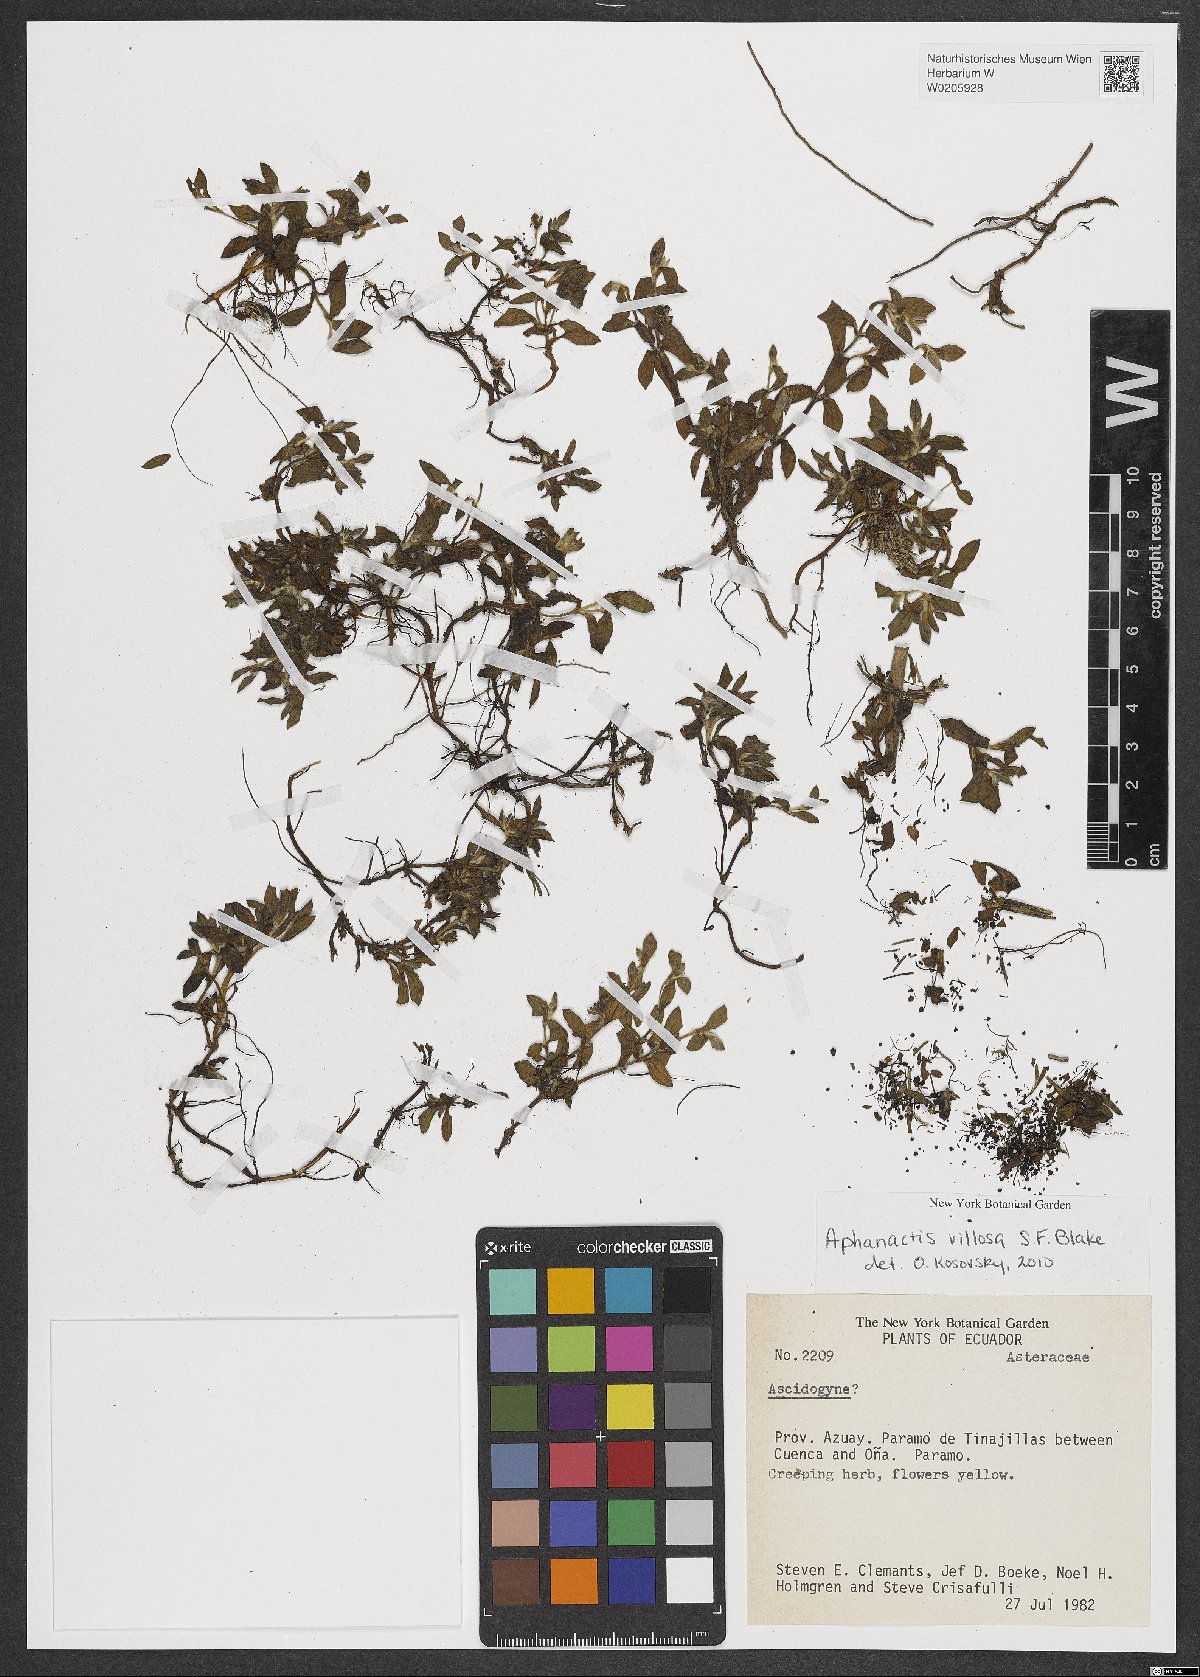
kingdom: Plantae
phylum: Tracheophyta
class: Magnoliopsida
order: Asterales
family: Asteraceae
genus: Aphanactis
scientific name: Aphanactis villosa
